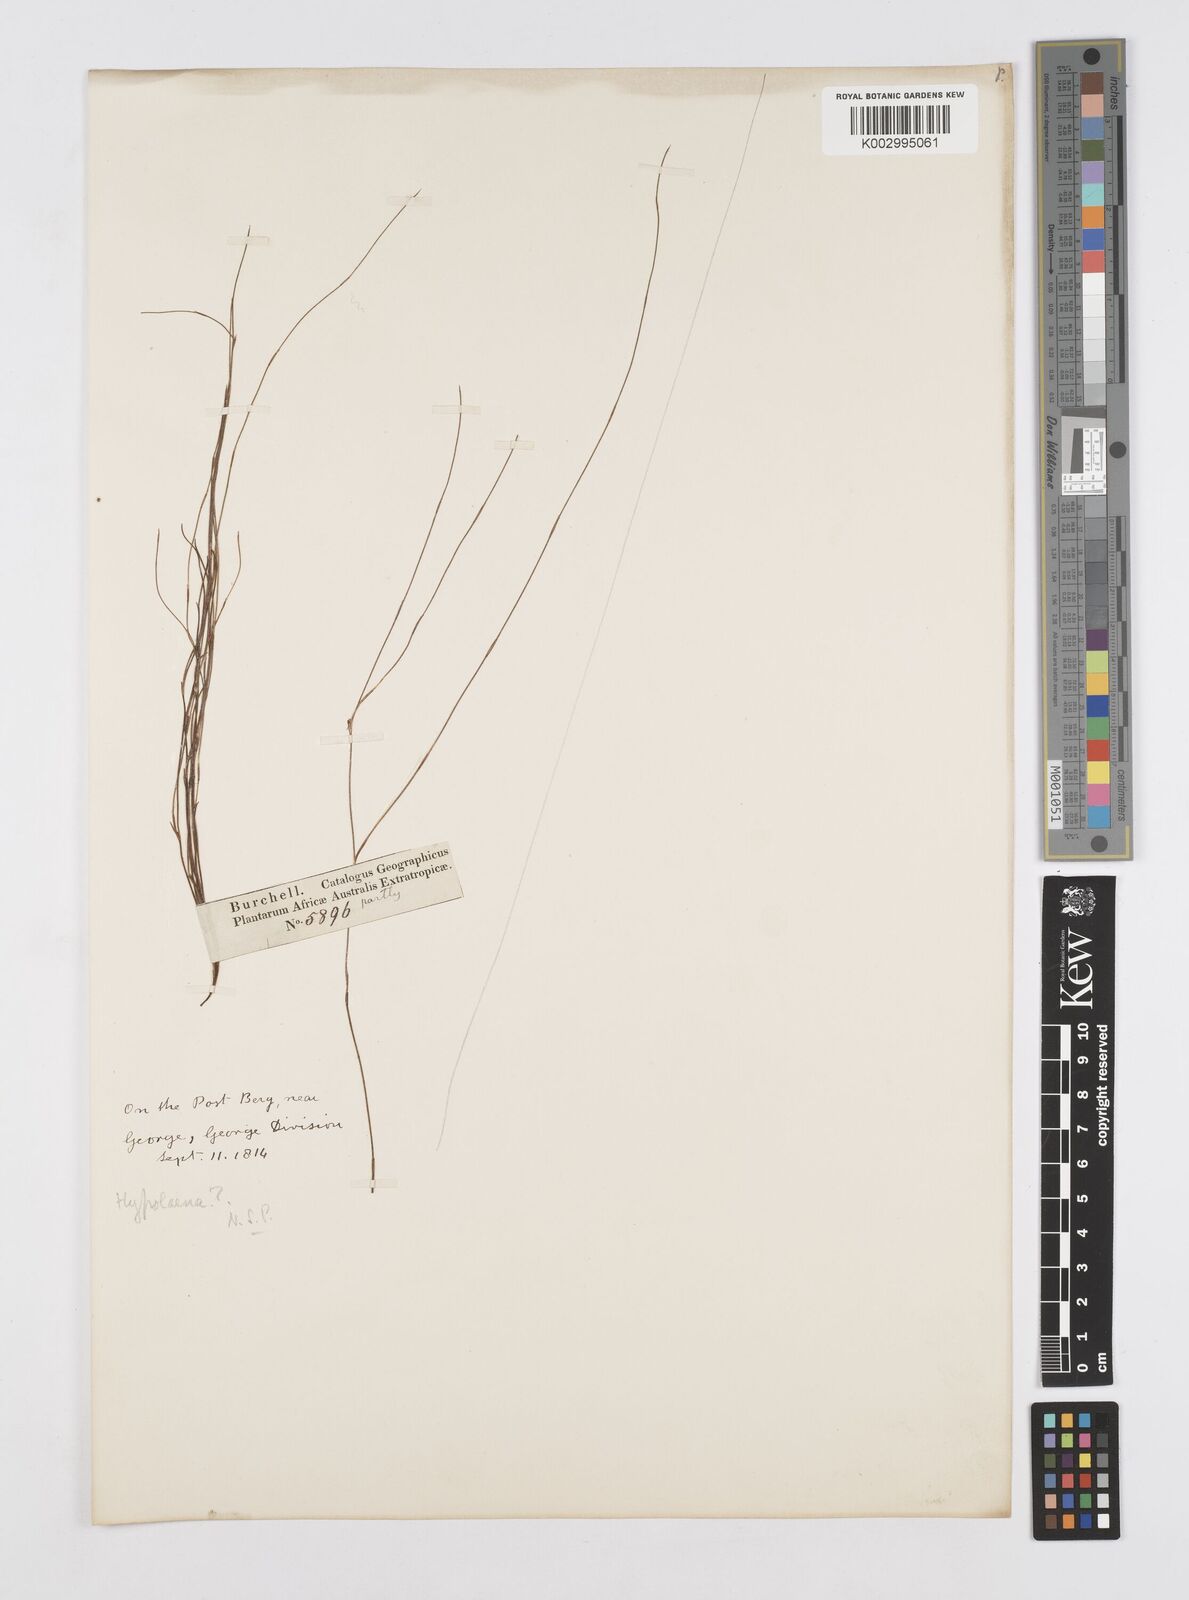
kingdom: Plantae
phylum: Tracheophyta
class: Liliopsida
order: Poales
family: Restionaceae
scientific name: Restionaceae
